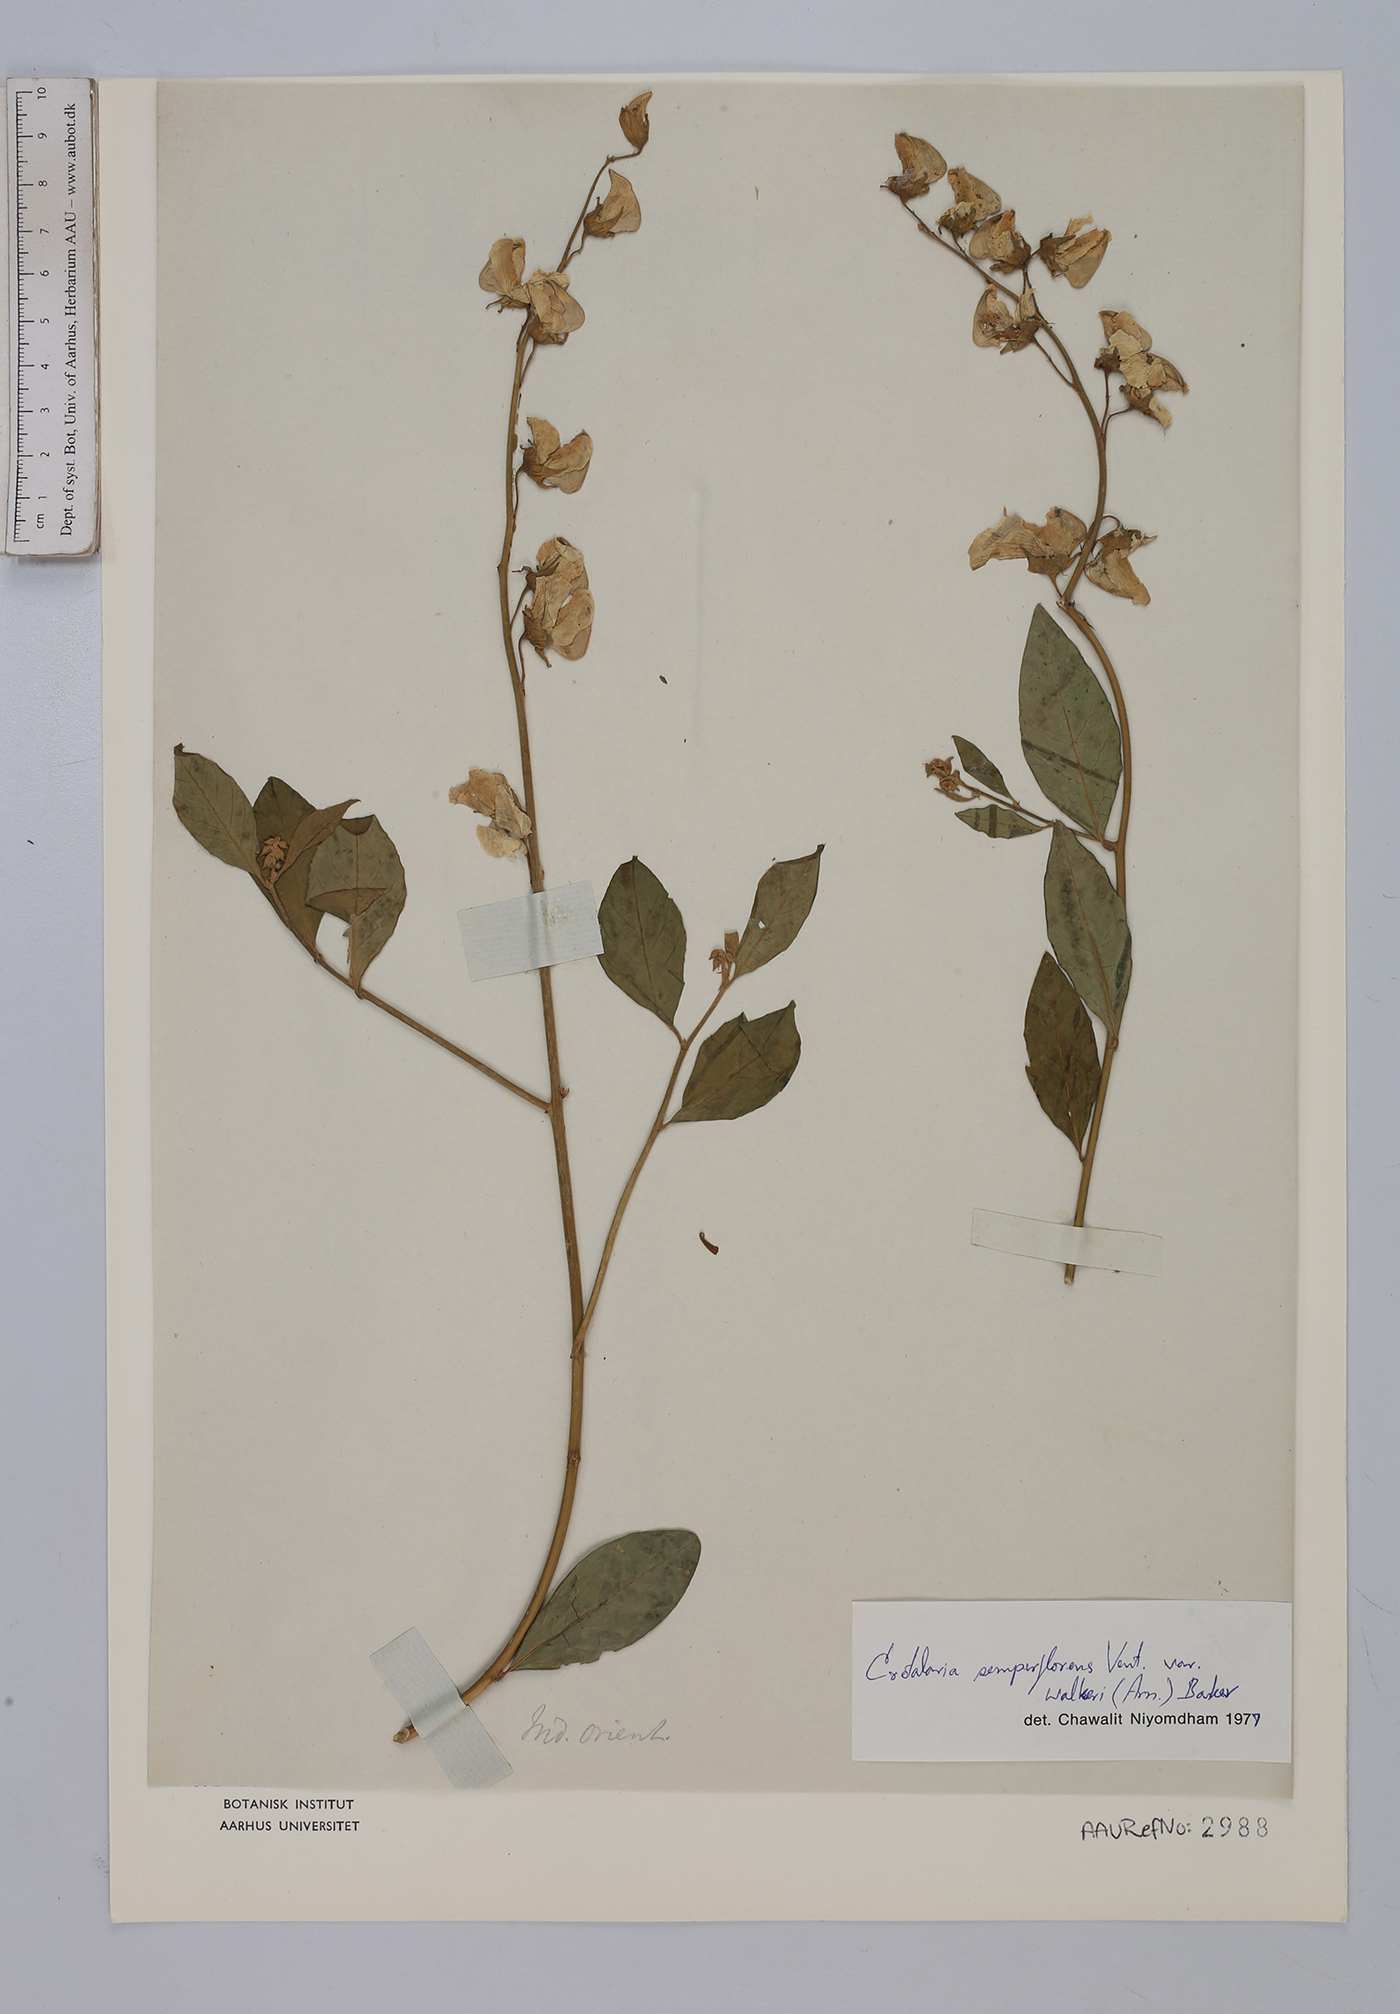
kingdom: Plantae
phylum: Tracheophyta
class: Magnoliopsida
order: Fabales
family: Fabaceae
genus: Crotalaria
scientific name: Crotalaria semperflorens
